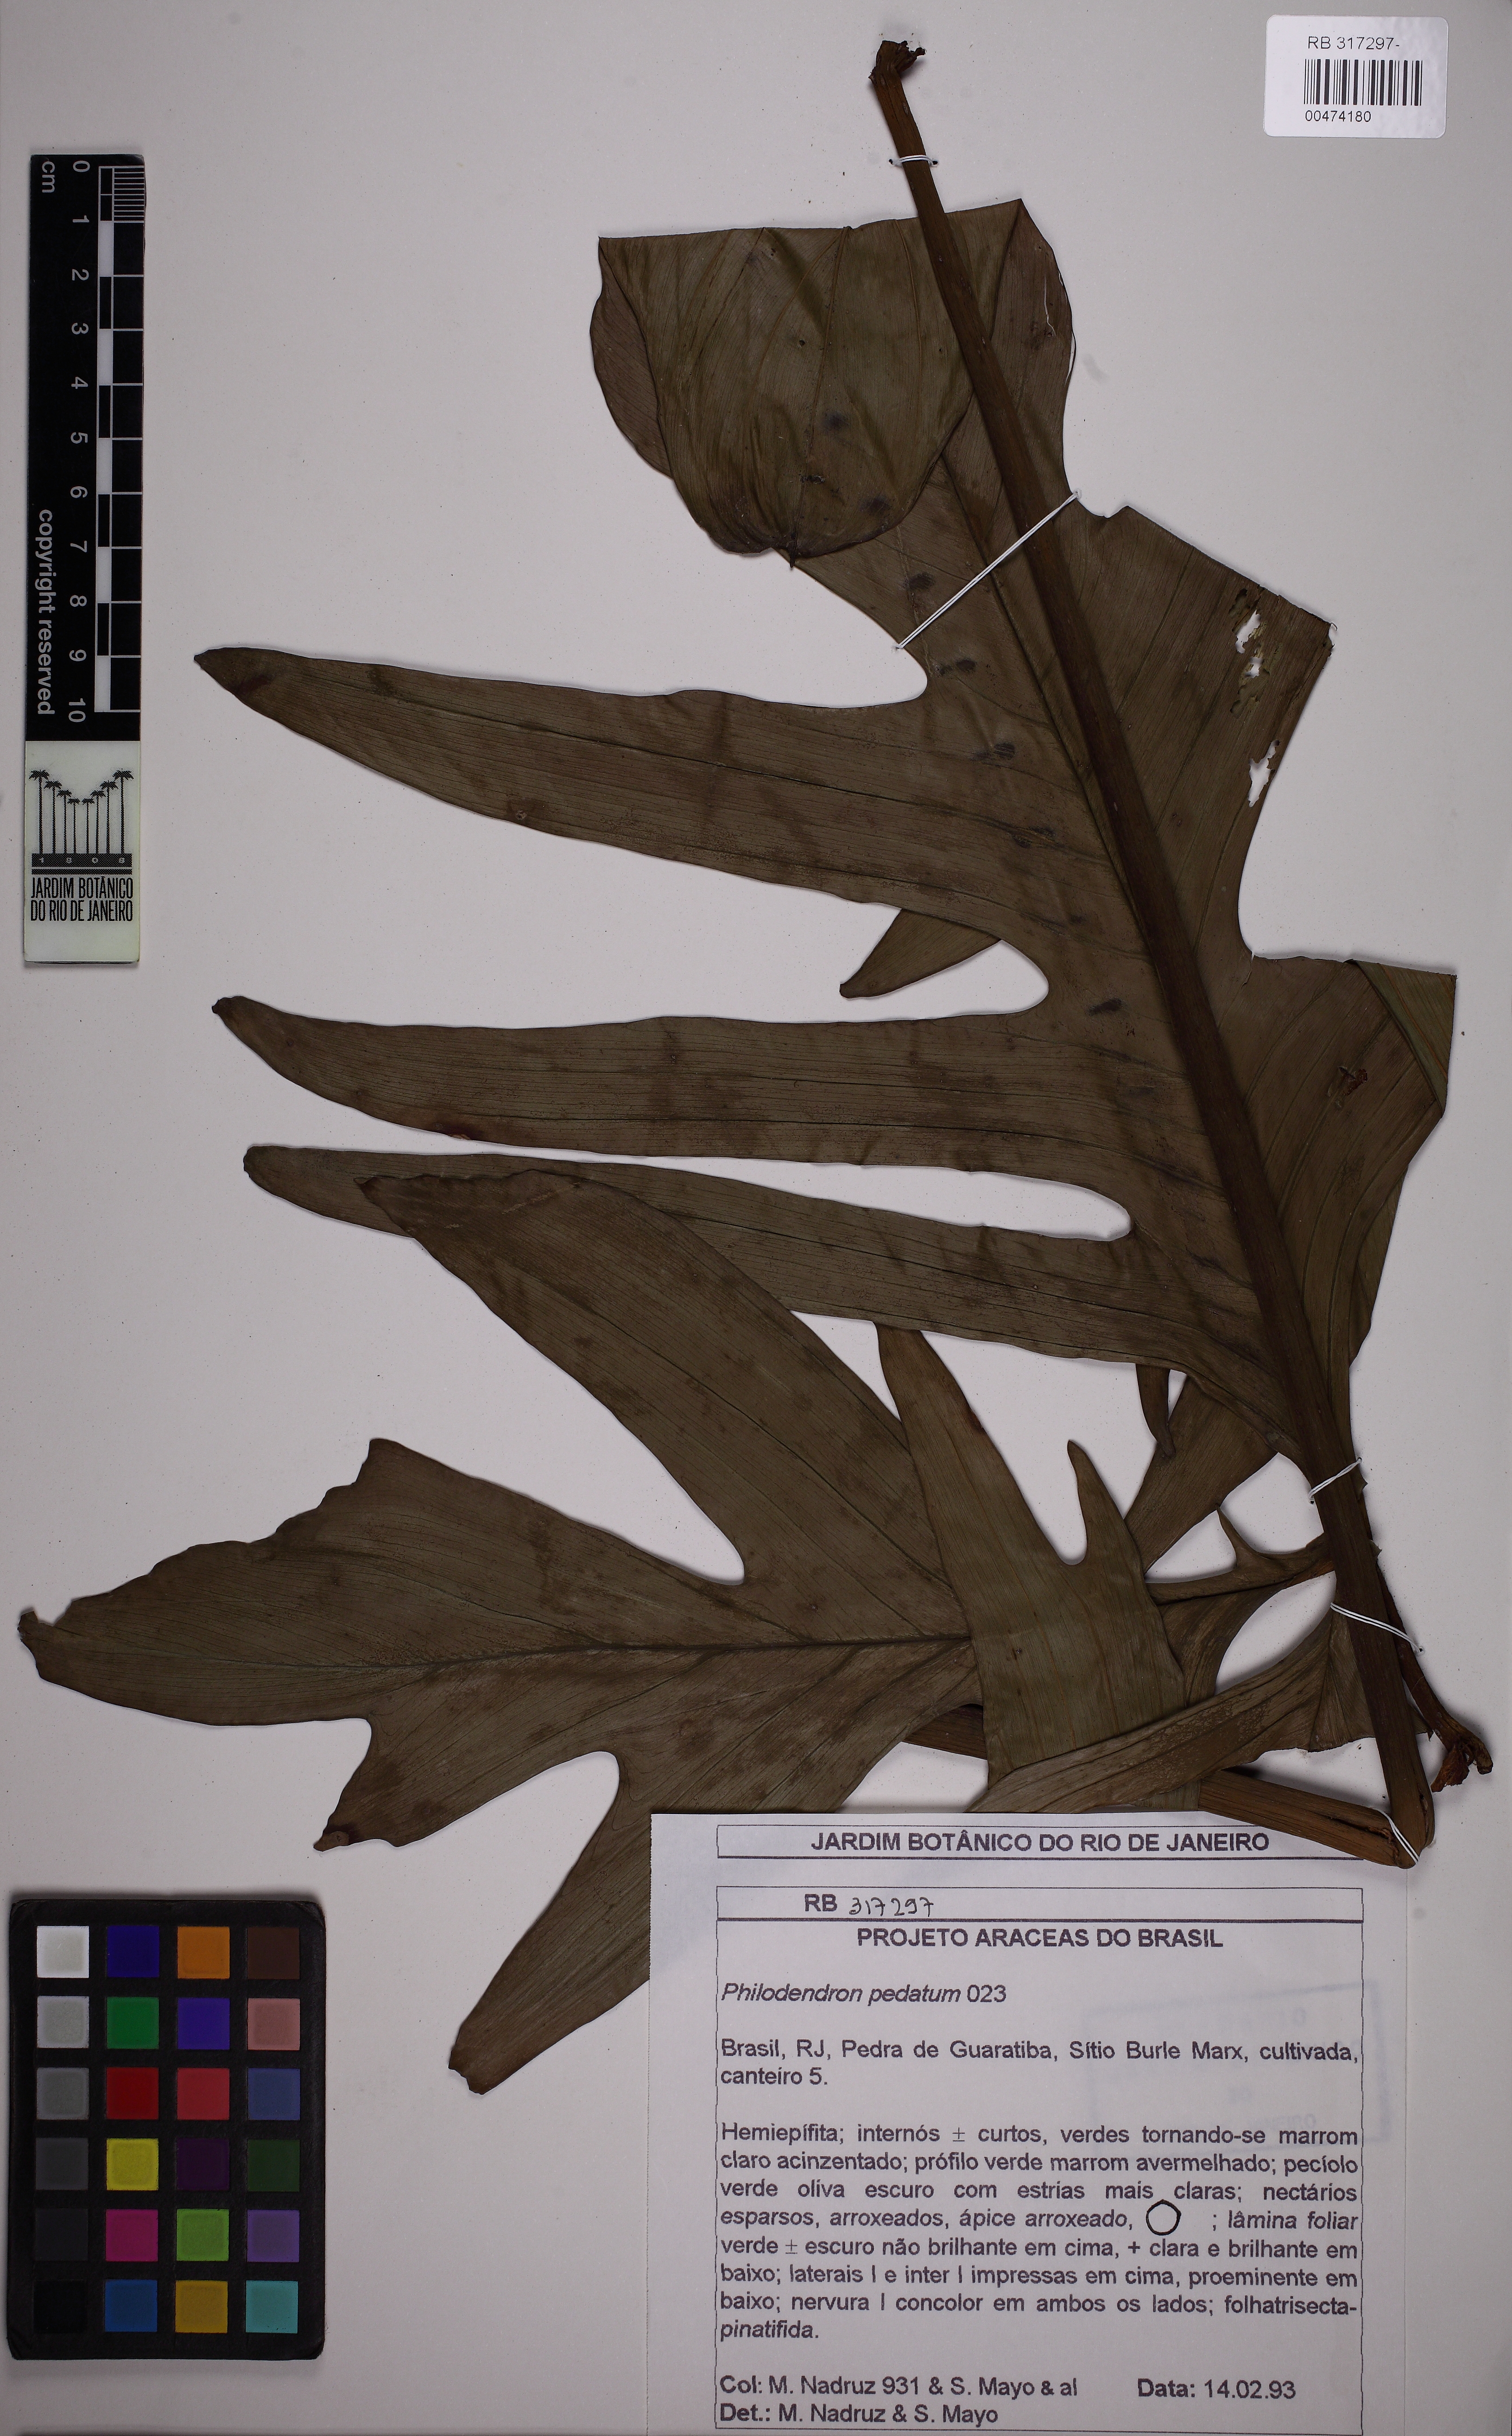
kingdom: Plantae
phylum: Tracheophyta
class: Liliopsida
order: Alismatales
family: Araceae
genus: Philodendron
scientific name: Philodendron pedatum
